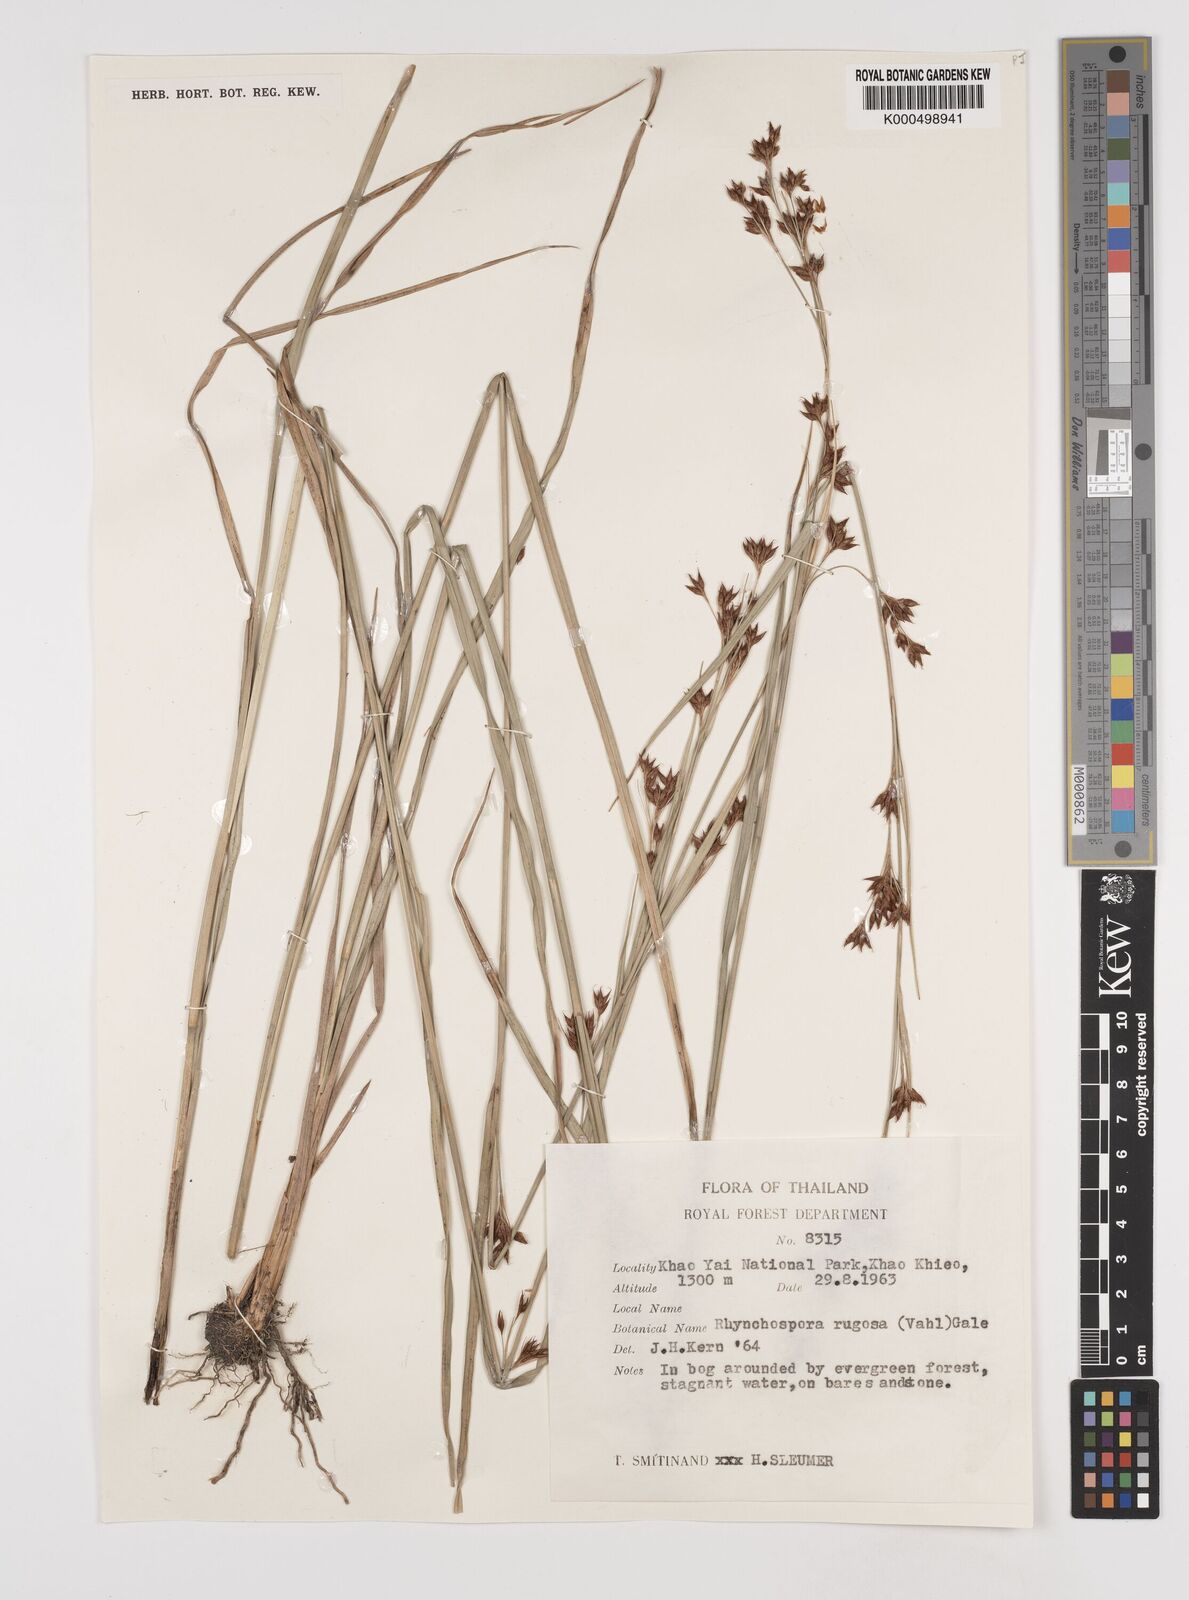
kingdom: Plantae
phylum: Tracheophyta
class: Liliopsida
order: Poales
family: Cyperaceae
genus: Rhynchospora
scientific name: Rhynchospora rugosa
